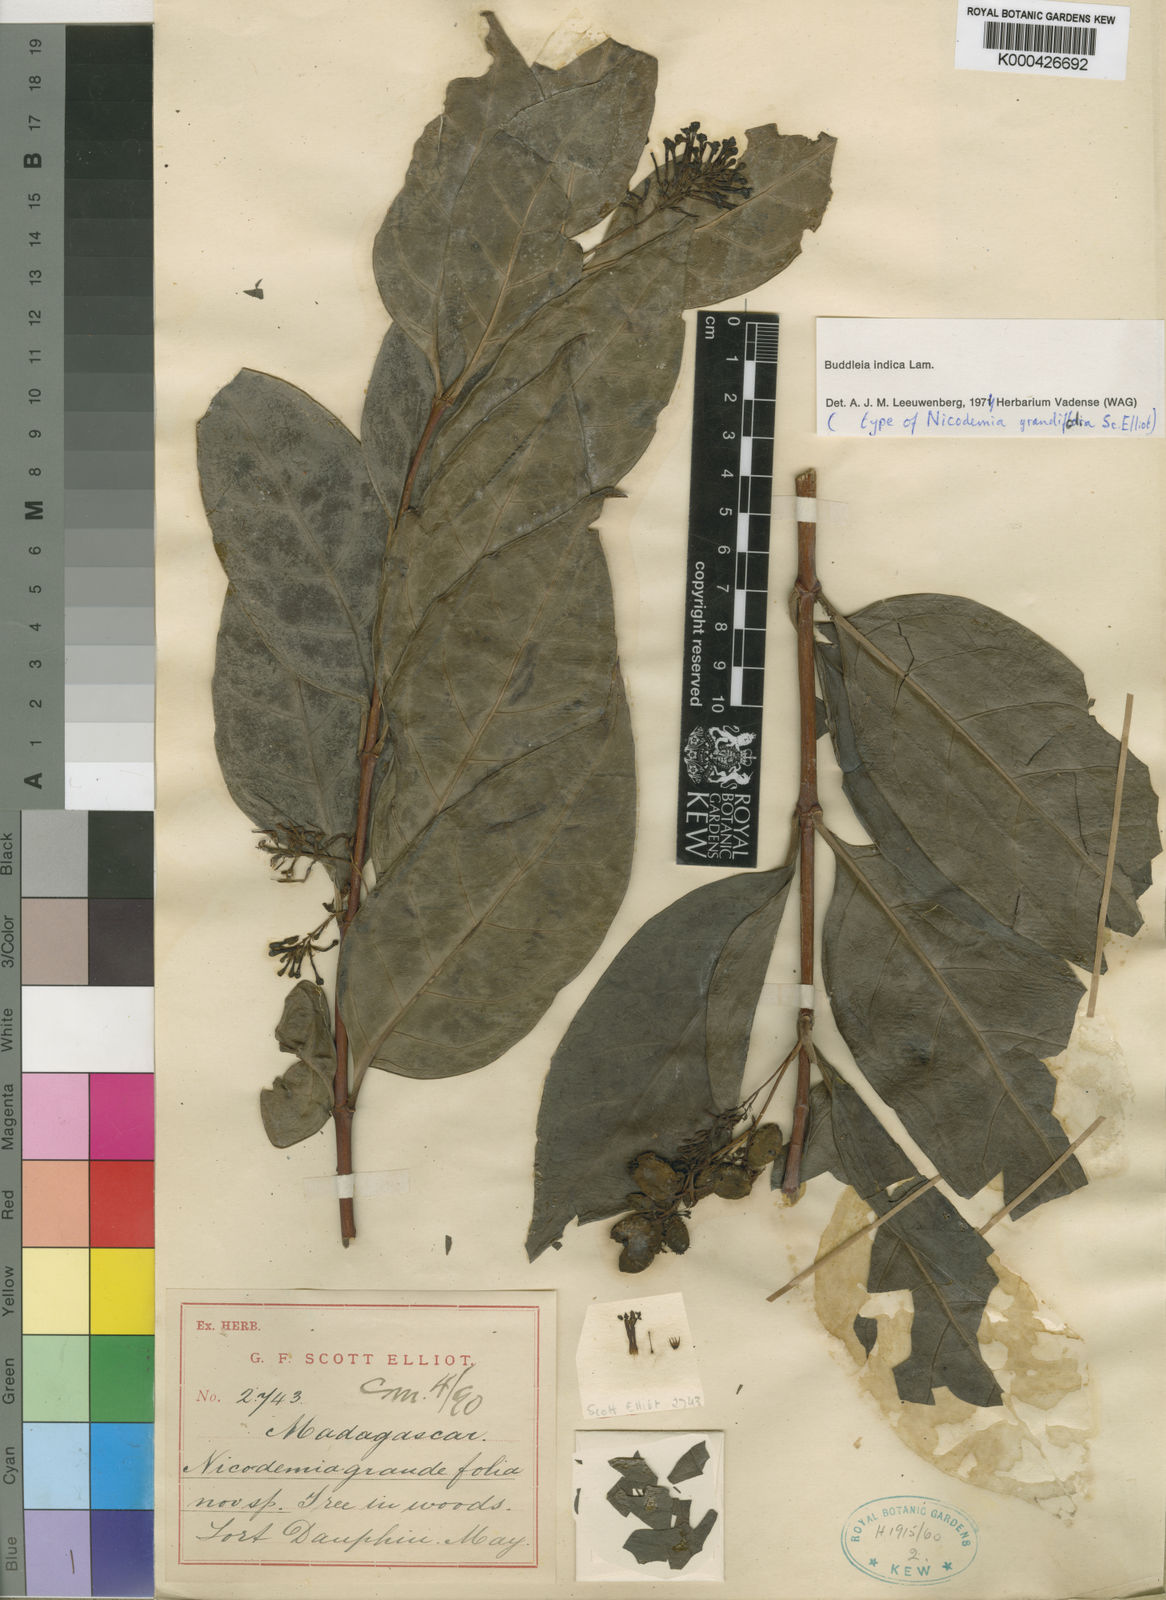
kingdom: Plantae
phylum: Tracheophyta
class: Magnoliopsida
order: Lamiales
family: Scrophulariaceae
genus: Buddleja
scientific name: Buddleja indica
